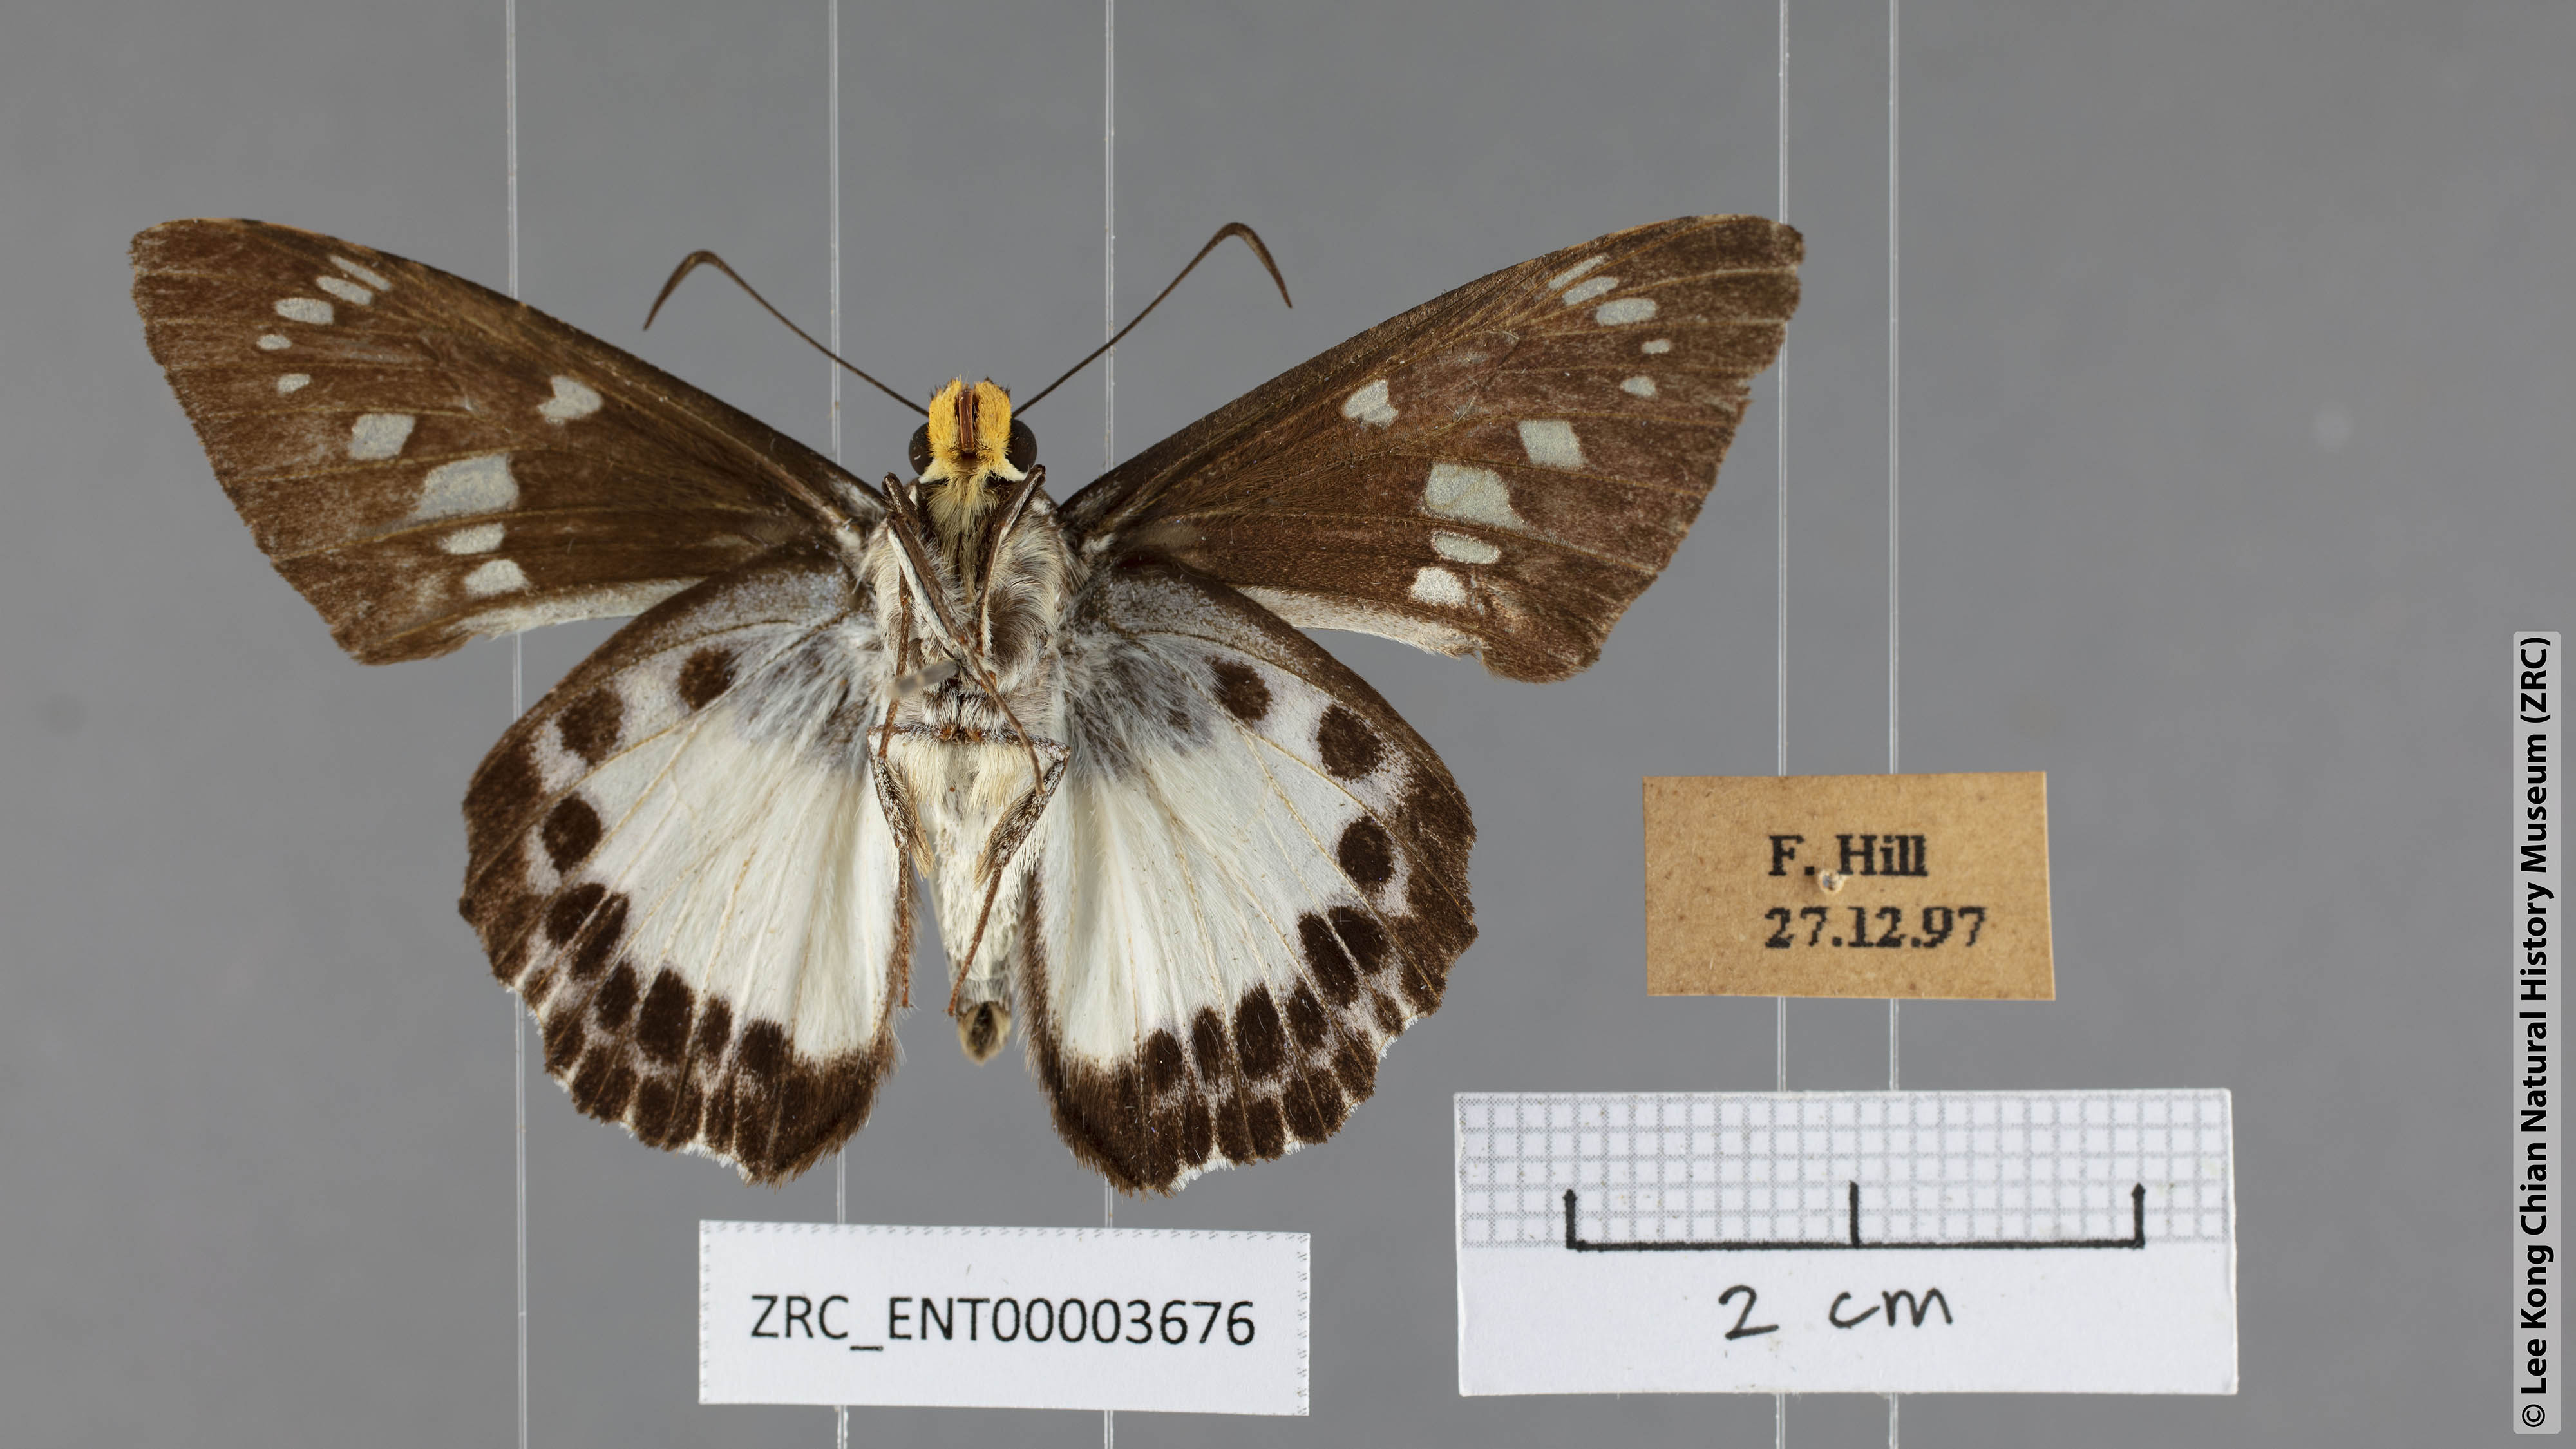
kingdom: Animalia
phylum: Arthropoda
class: Insecta
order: Lepidoptera
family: Hesperiidae
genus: Satarupa
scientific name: Satarupa gopala
